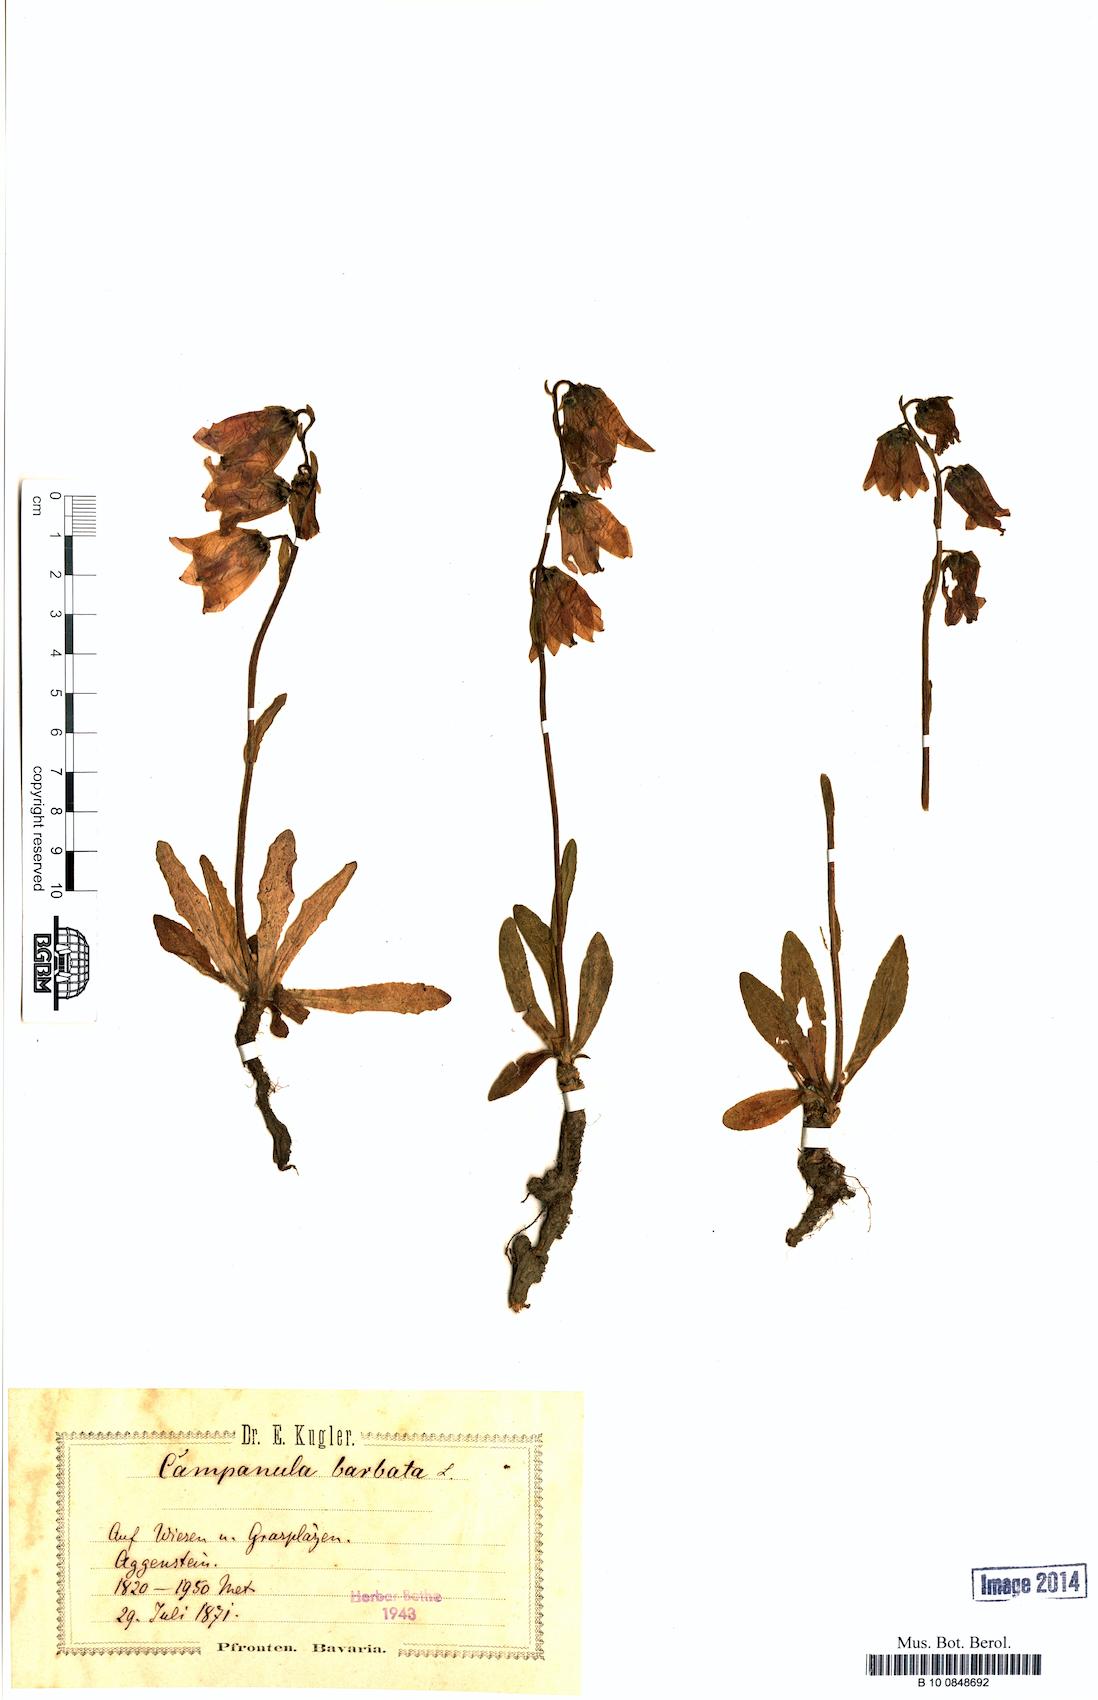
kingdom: Plantae
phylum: Tracheophyta
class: Magnoliopsida
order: Asterales
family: Campanulaceae
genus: Campanula
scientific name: Campanula barbata
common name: Bearded bellflower
